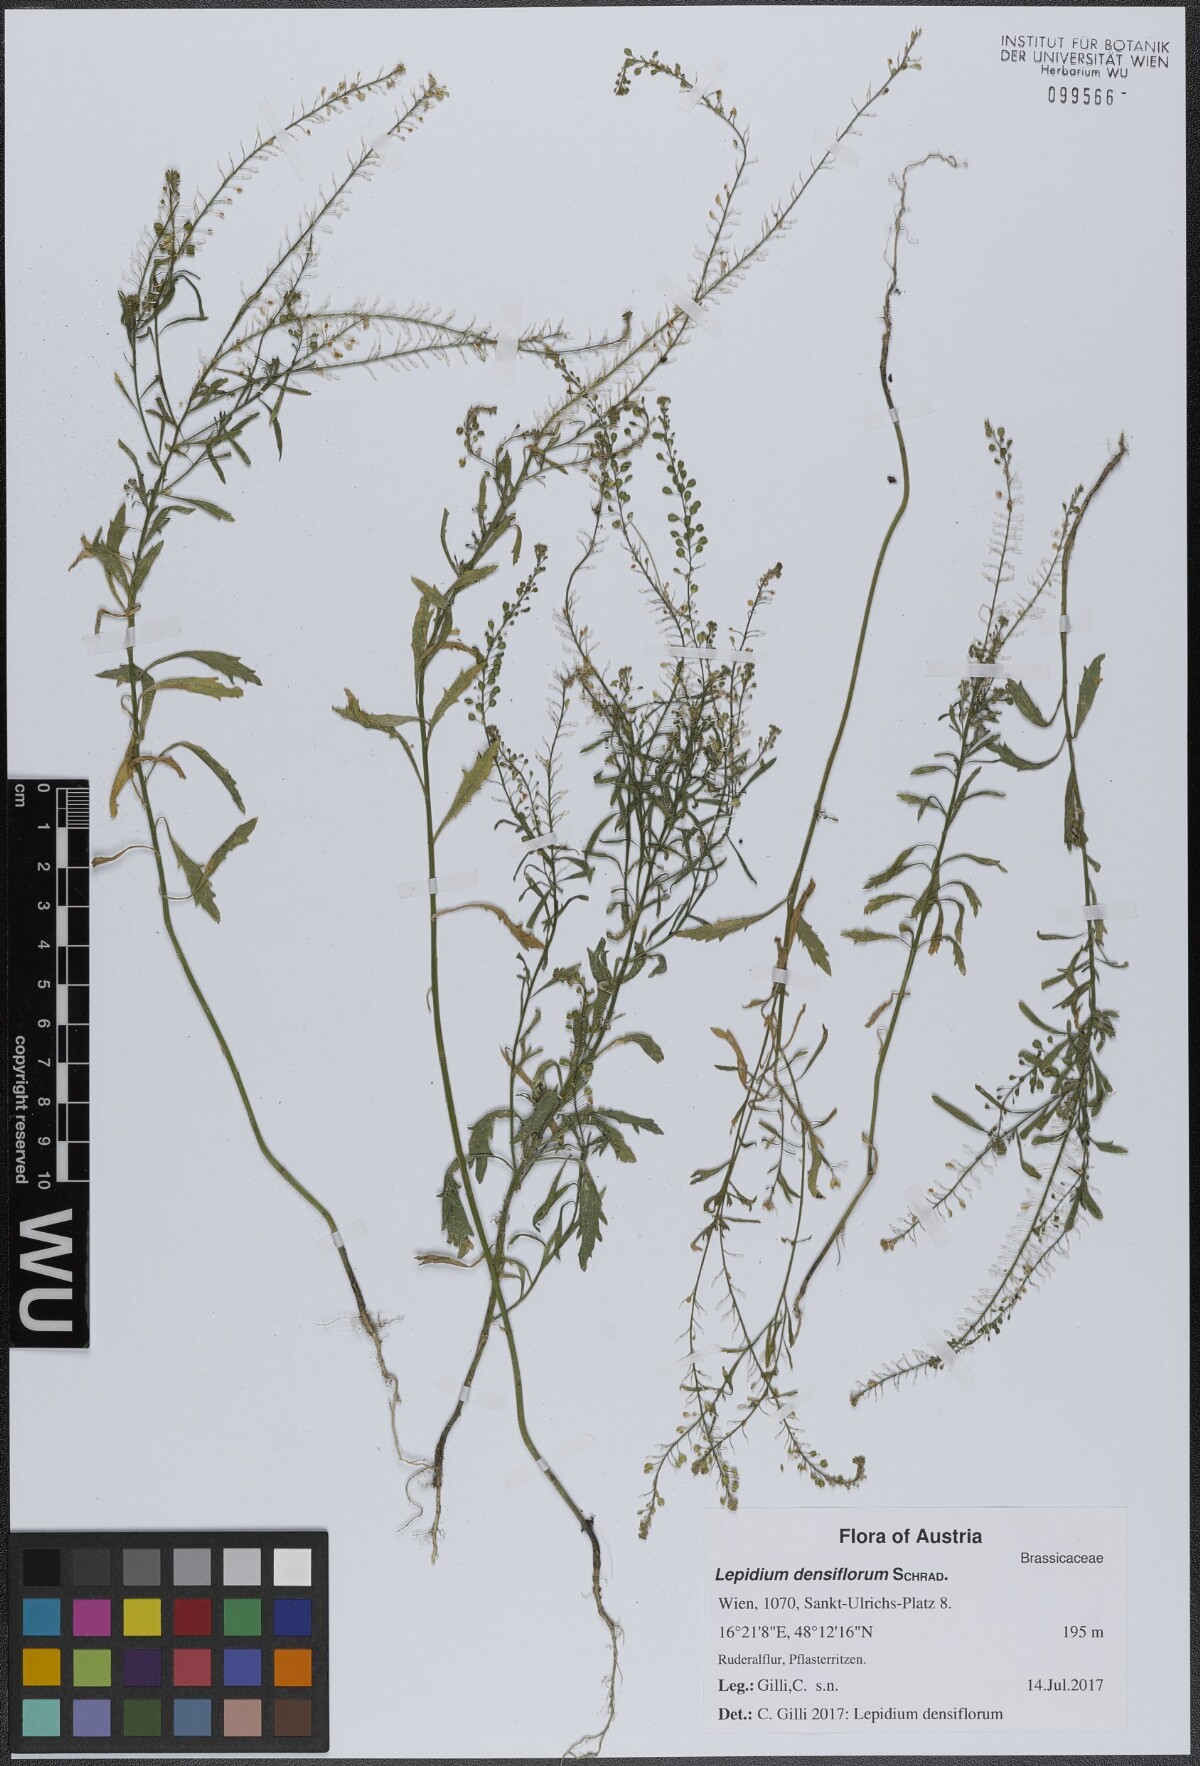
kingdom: Plantae
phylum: Tracheophyta
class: Magnoliopsida
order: Brassicales
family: Brassicaceae
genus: Lepidium
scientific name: Lepidium densiflorum
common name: Miner's pepperwort
